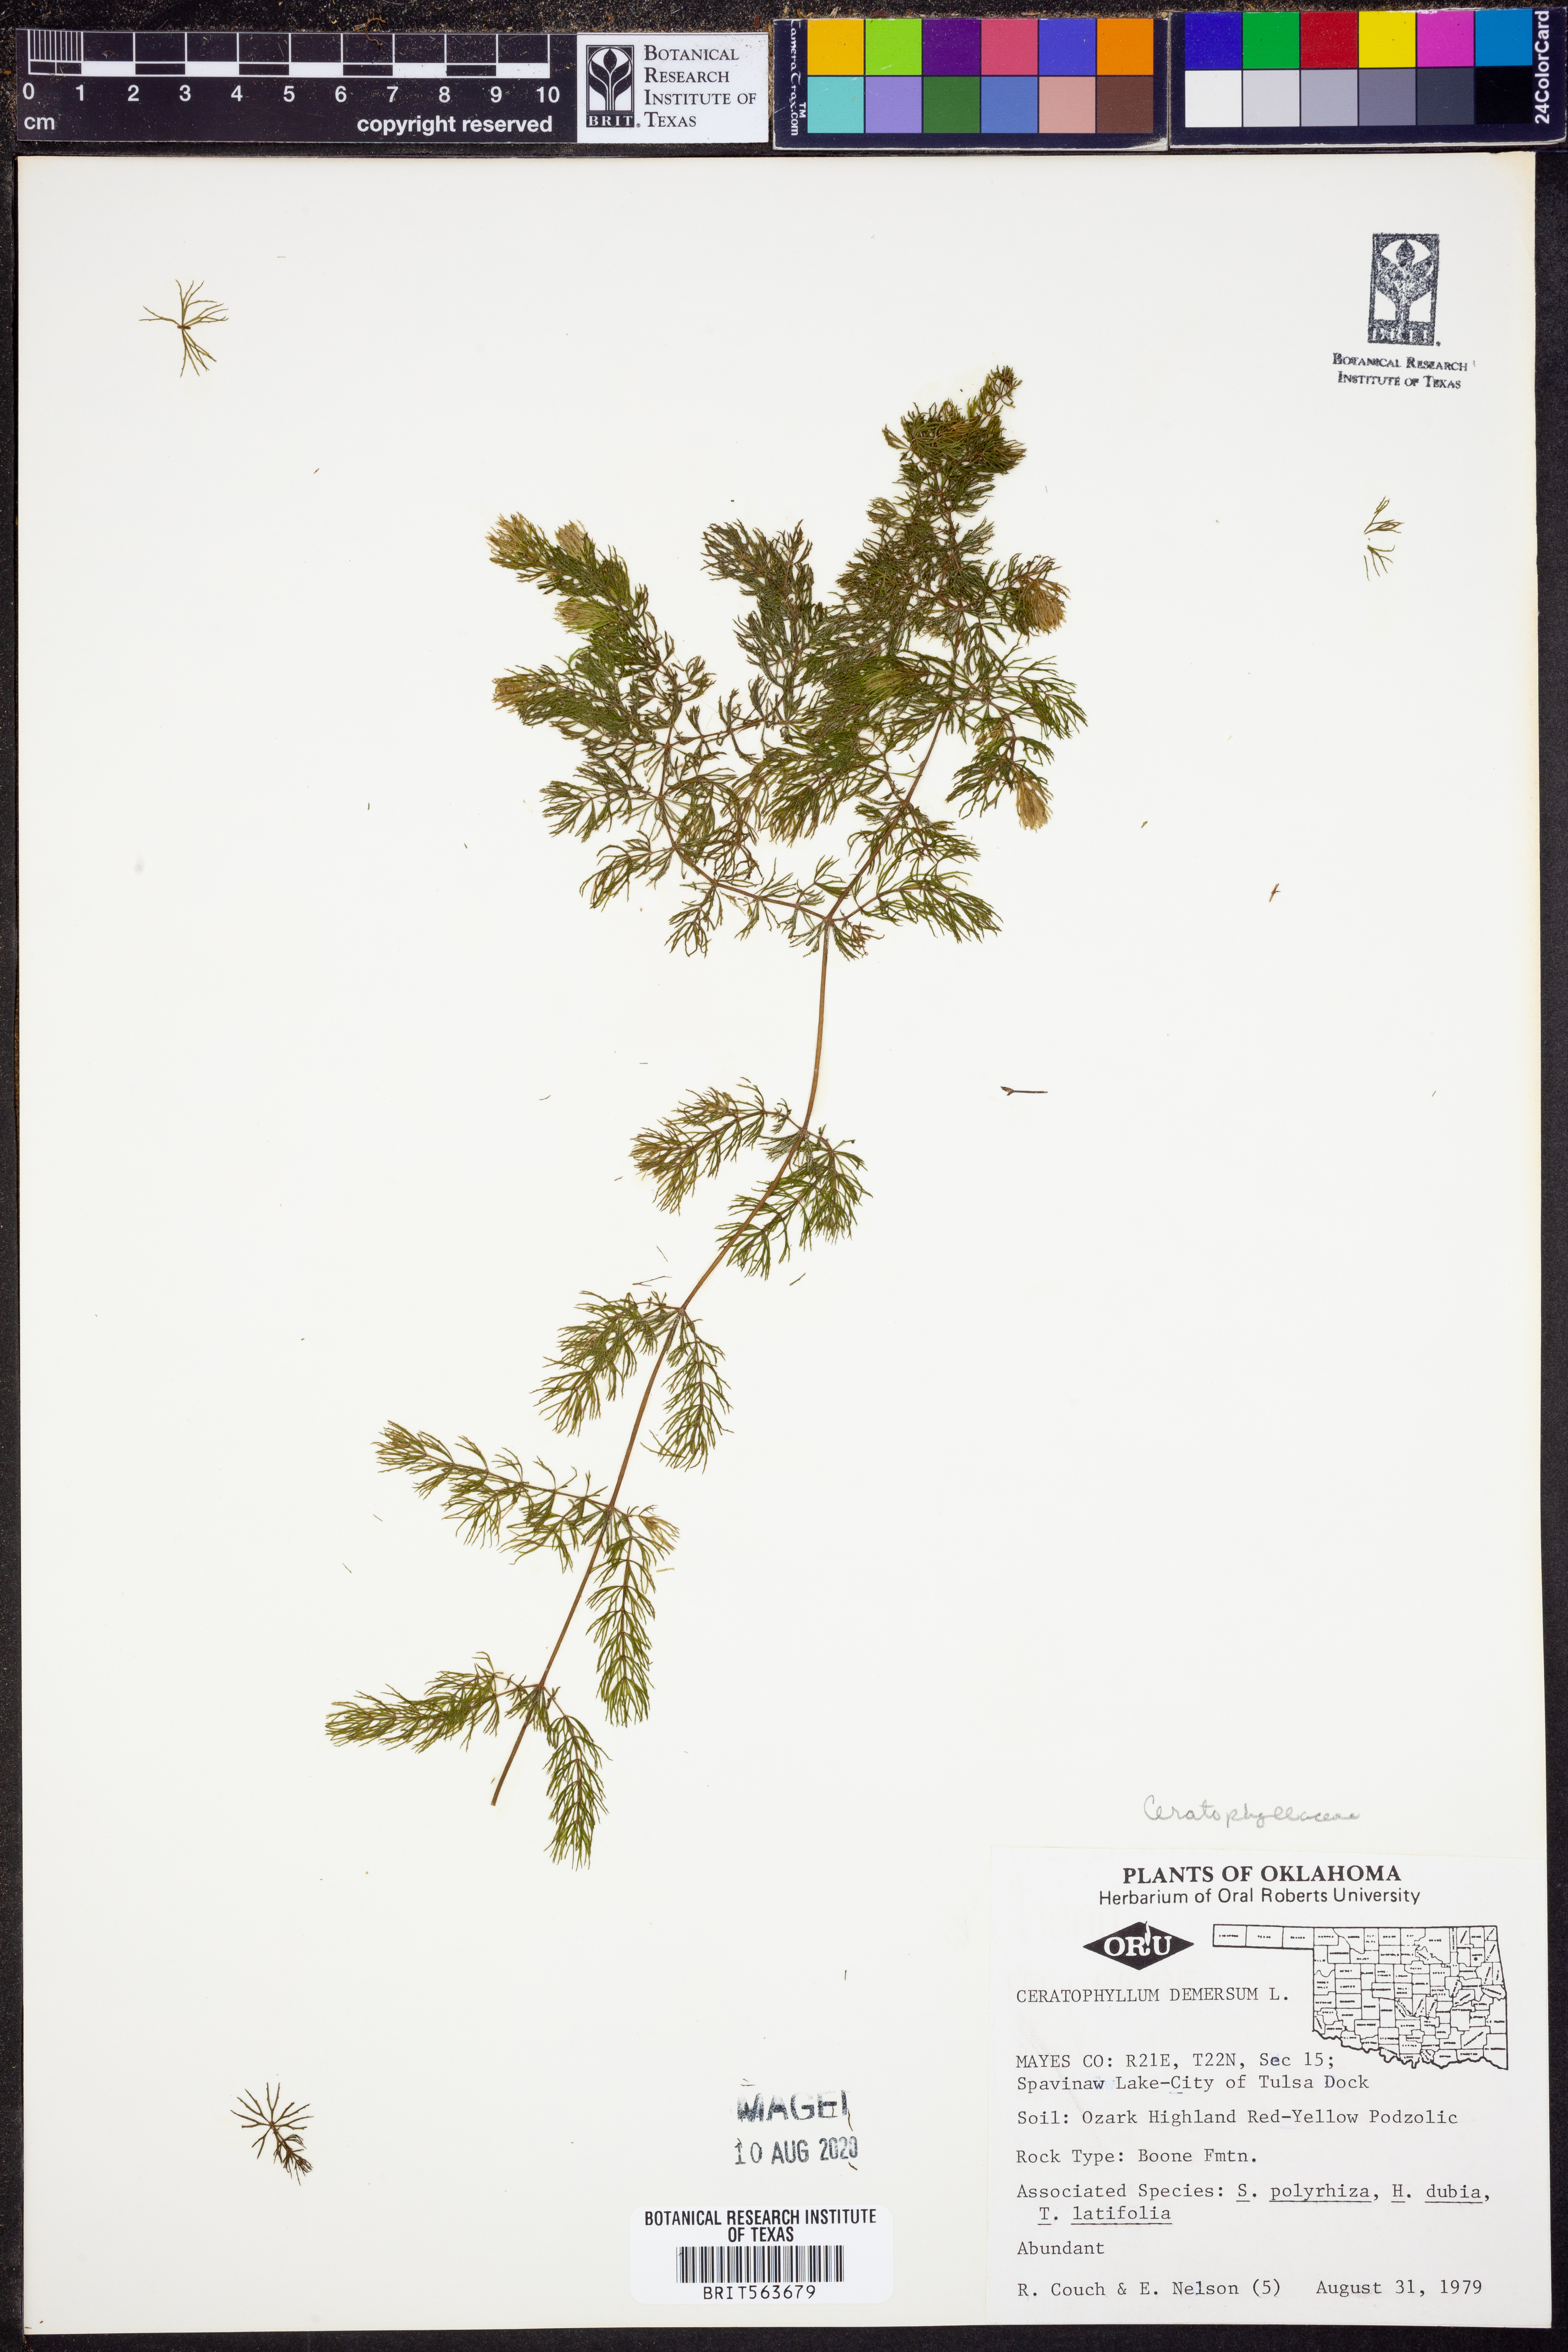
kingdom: Plantae
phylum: Tracheophyta
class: Magnoliopsida
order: Ceratophyllales
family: Ceratophyllaceae
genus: Ceratophyllum
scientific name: Ceratophyllum demersum
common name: Rigid hornwort
